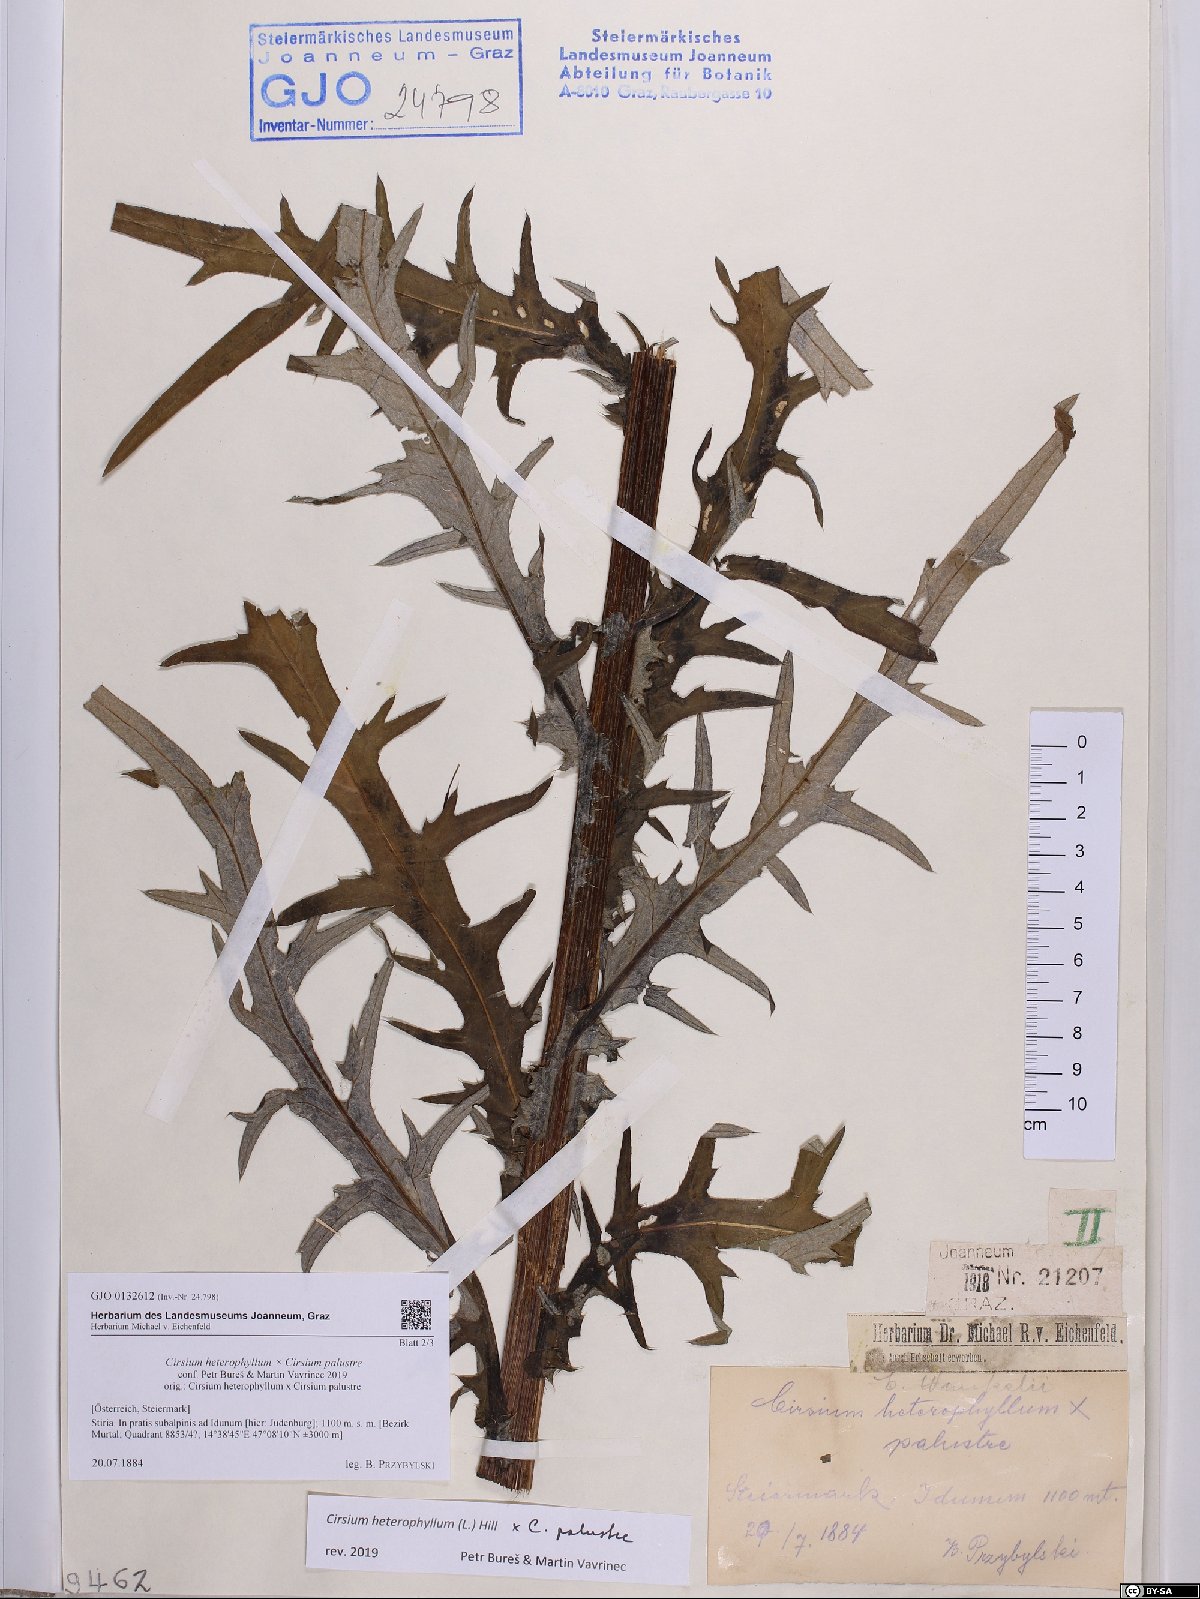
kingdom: Plantae
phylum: Tracheophyta
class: Magnoliopsida
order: Asterales
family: Asteraceae
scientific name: Asteraceae
